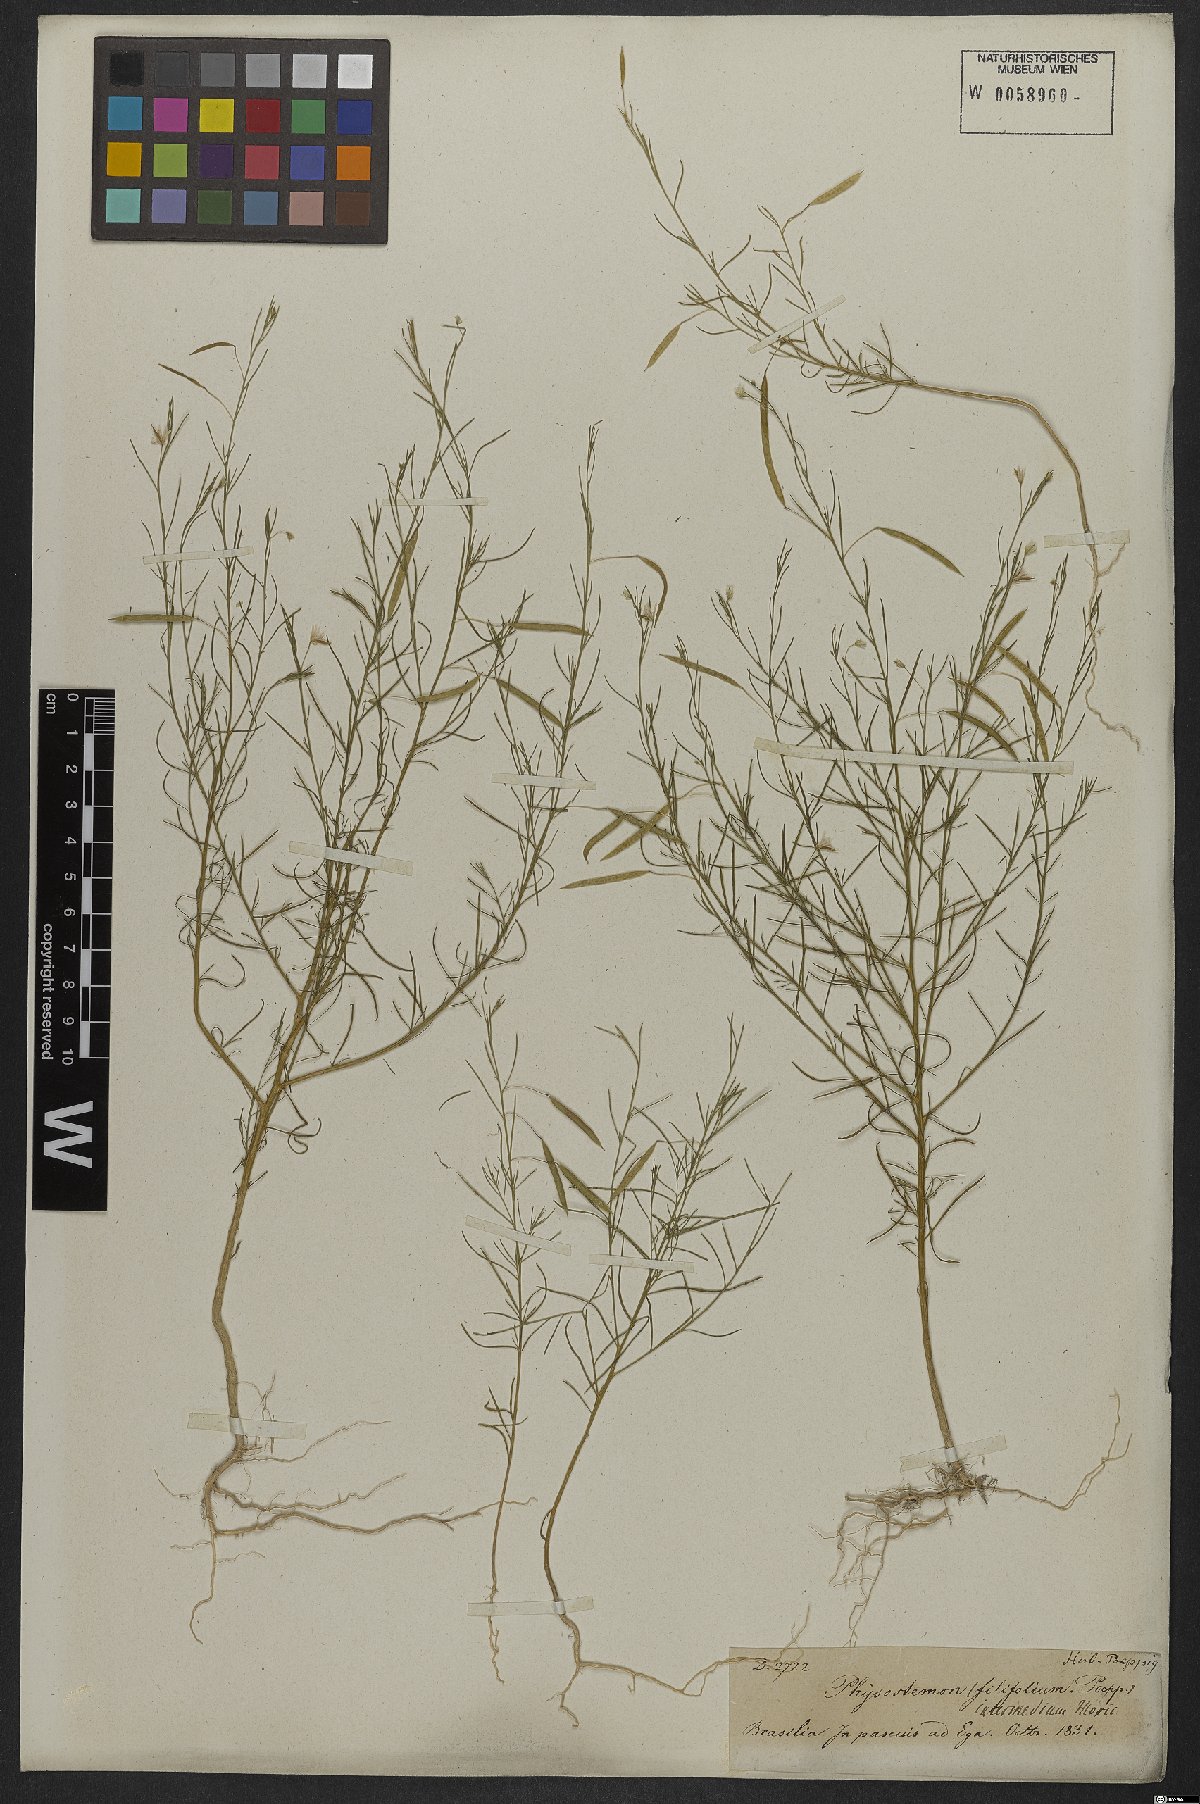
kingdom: Plantae
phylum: Tracheophyta
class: Magnoliopsida
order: Brassicales
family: Cleomaceae
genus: Andinocleome
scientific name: Andinocleome anomala
